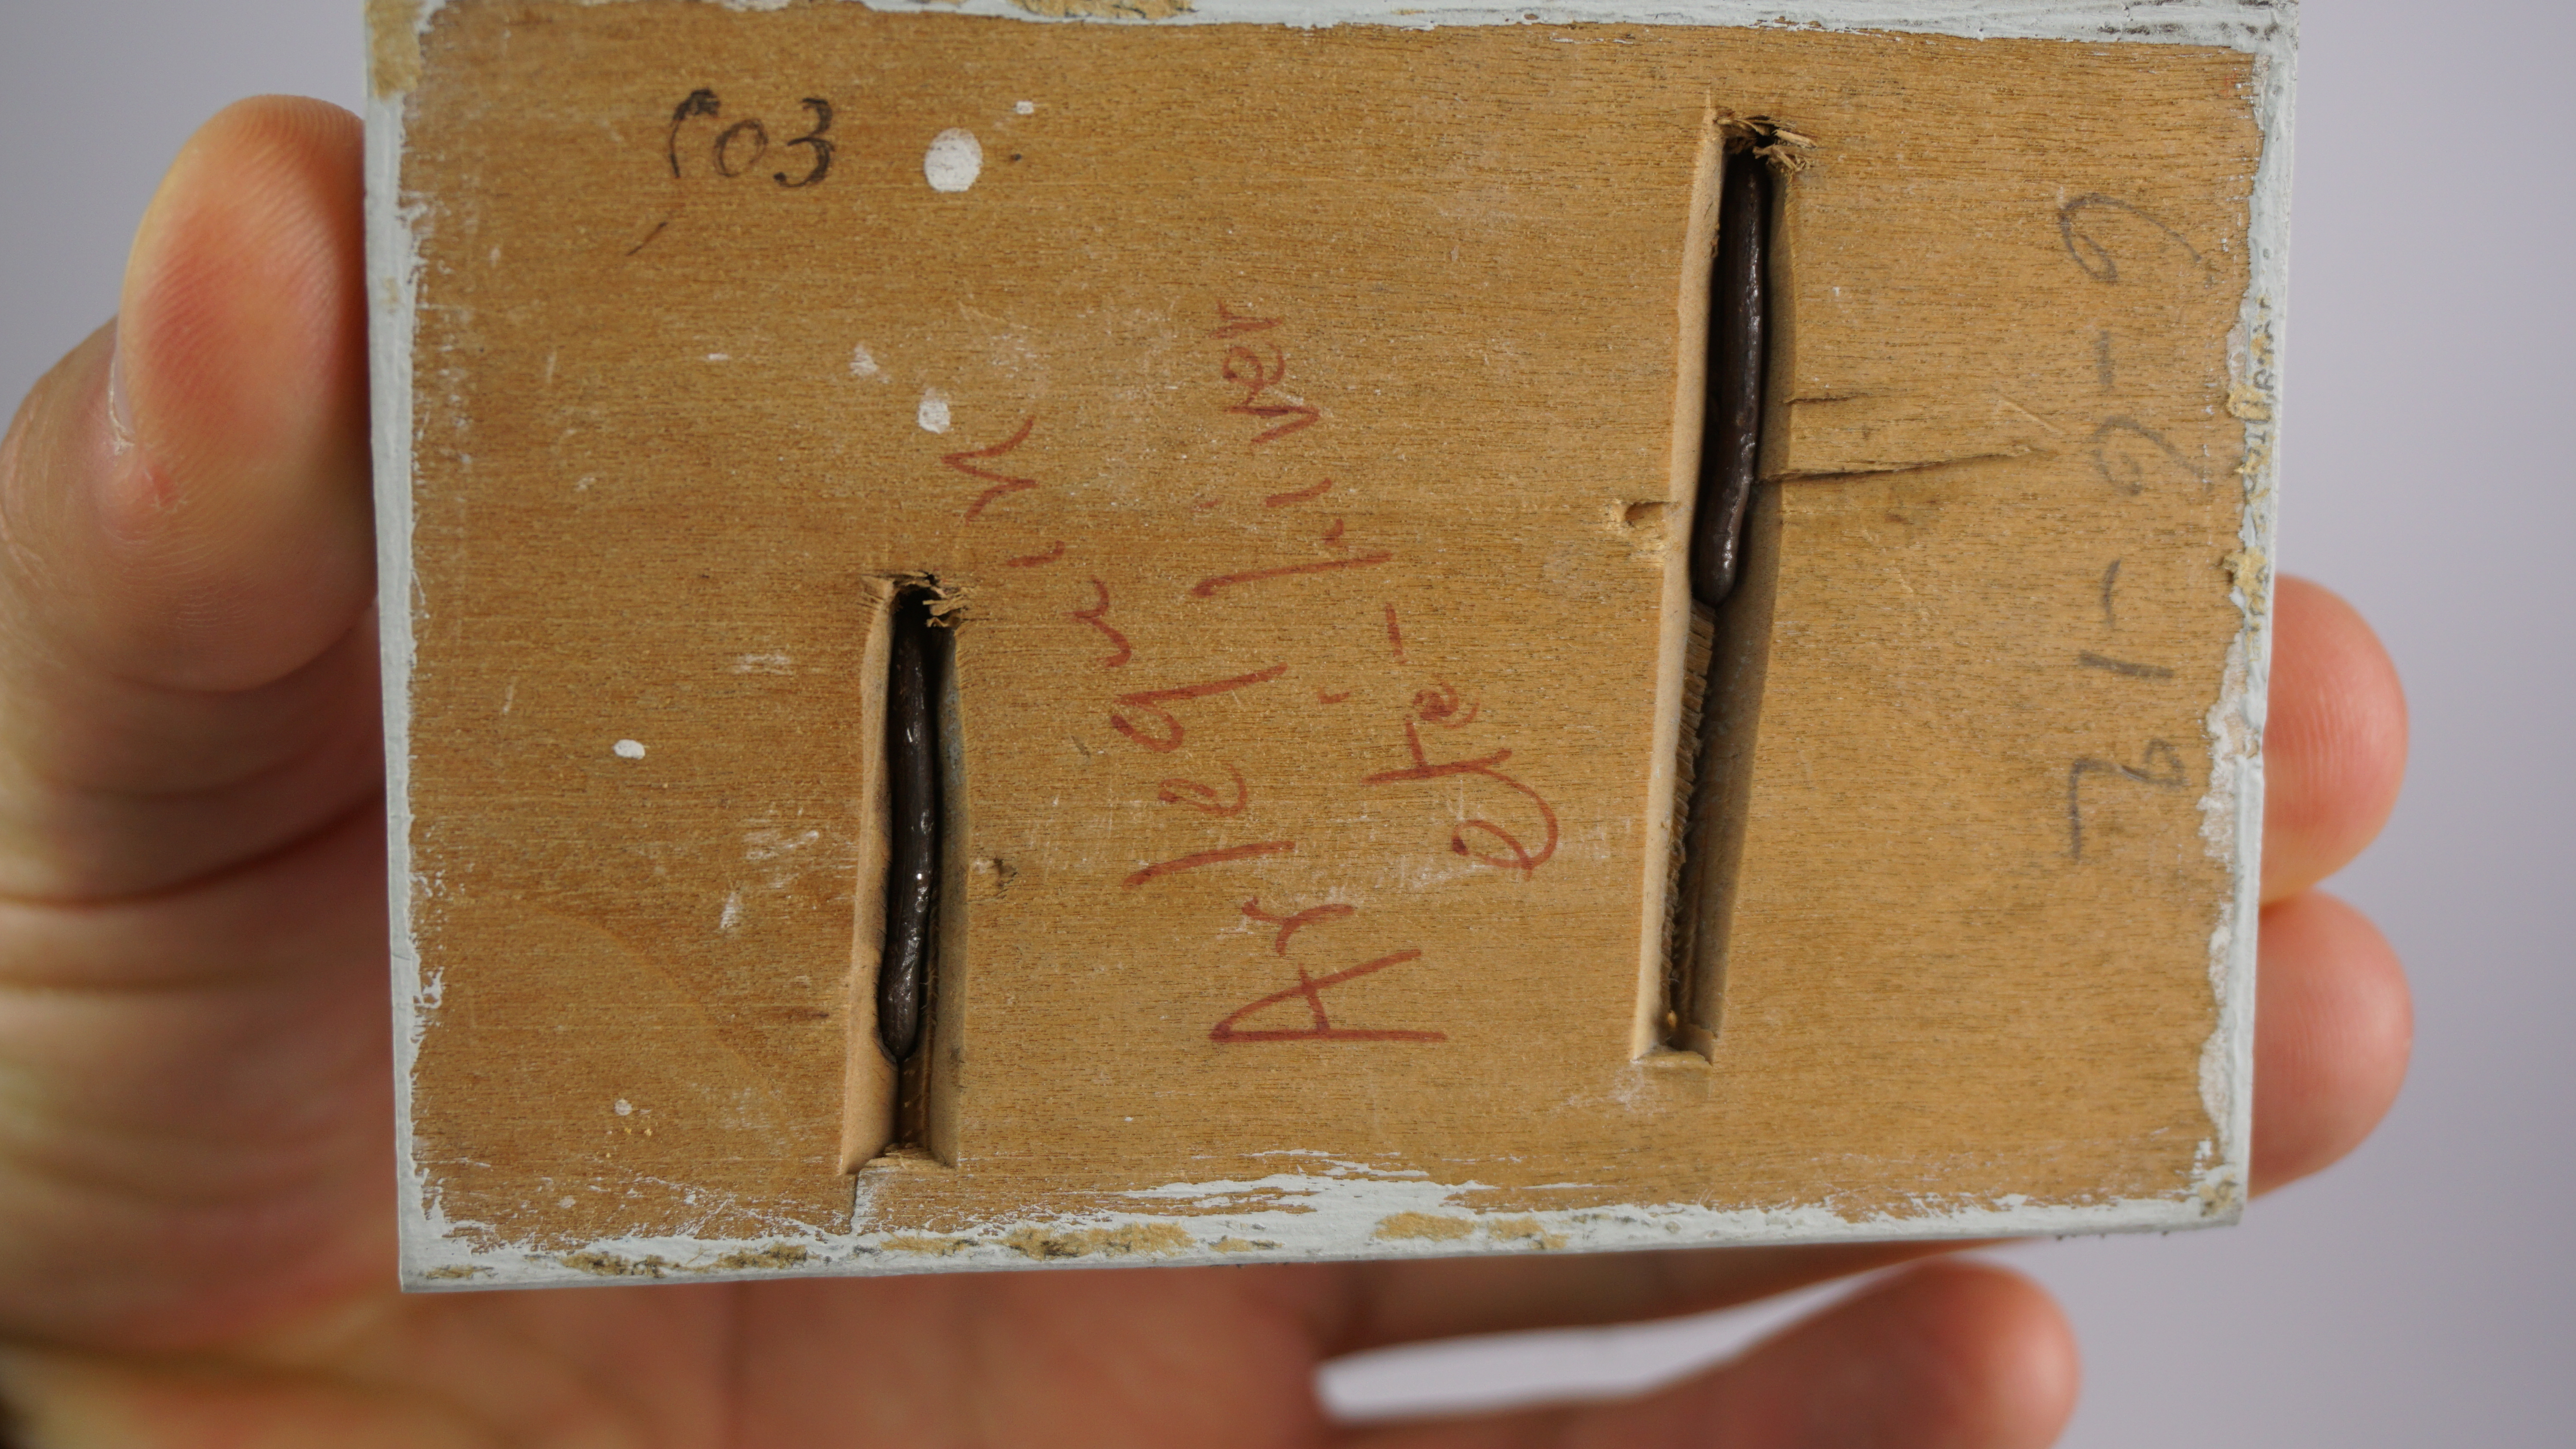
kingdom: Animalia
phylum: Chordata
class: Aves
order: Charadriiformes
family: Scolopacidae
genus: Tringa
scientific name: Tringa erythropus
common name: Spotted redshank
